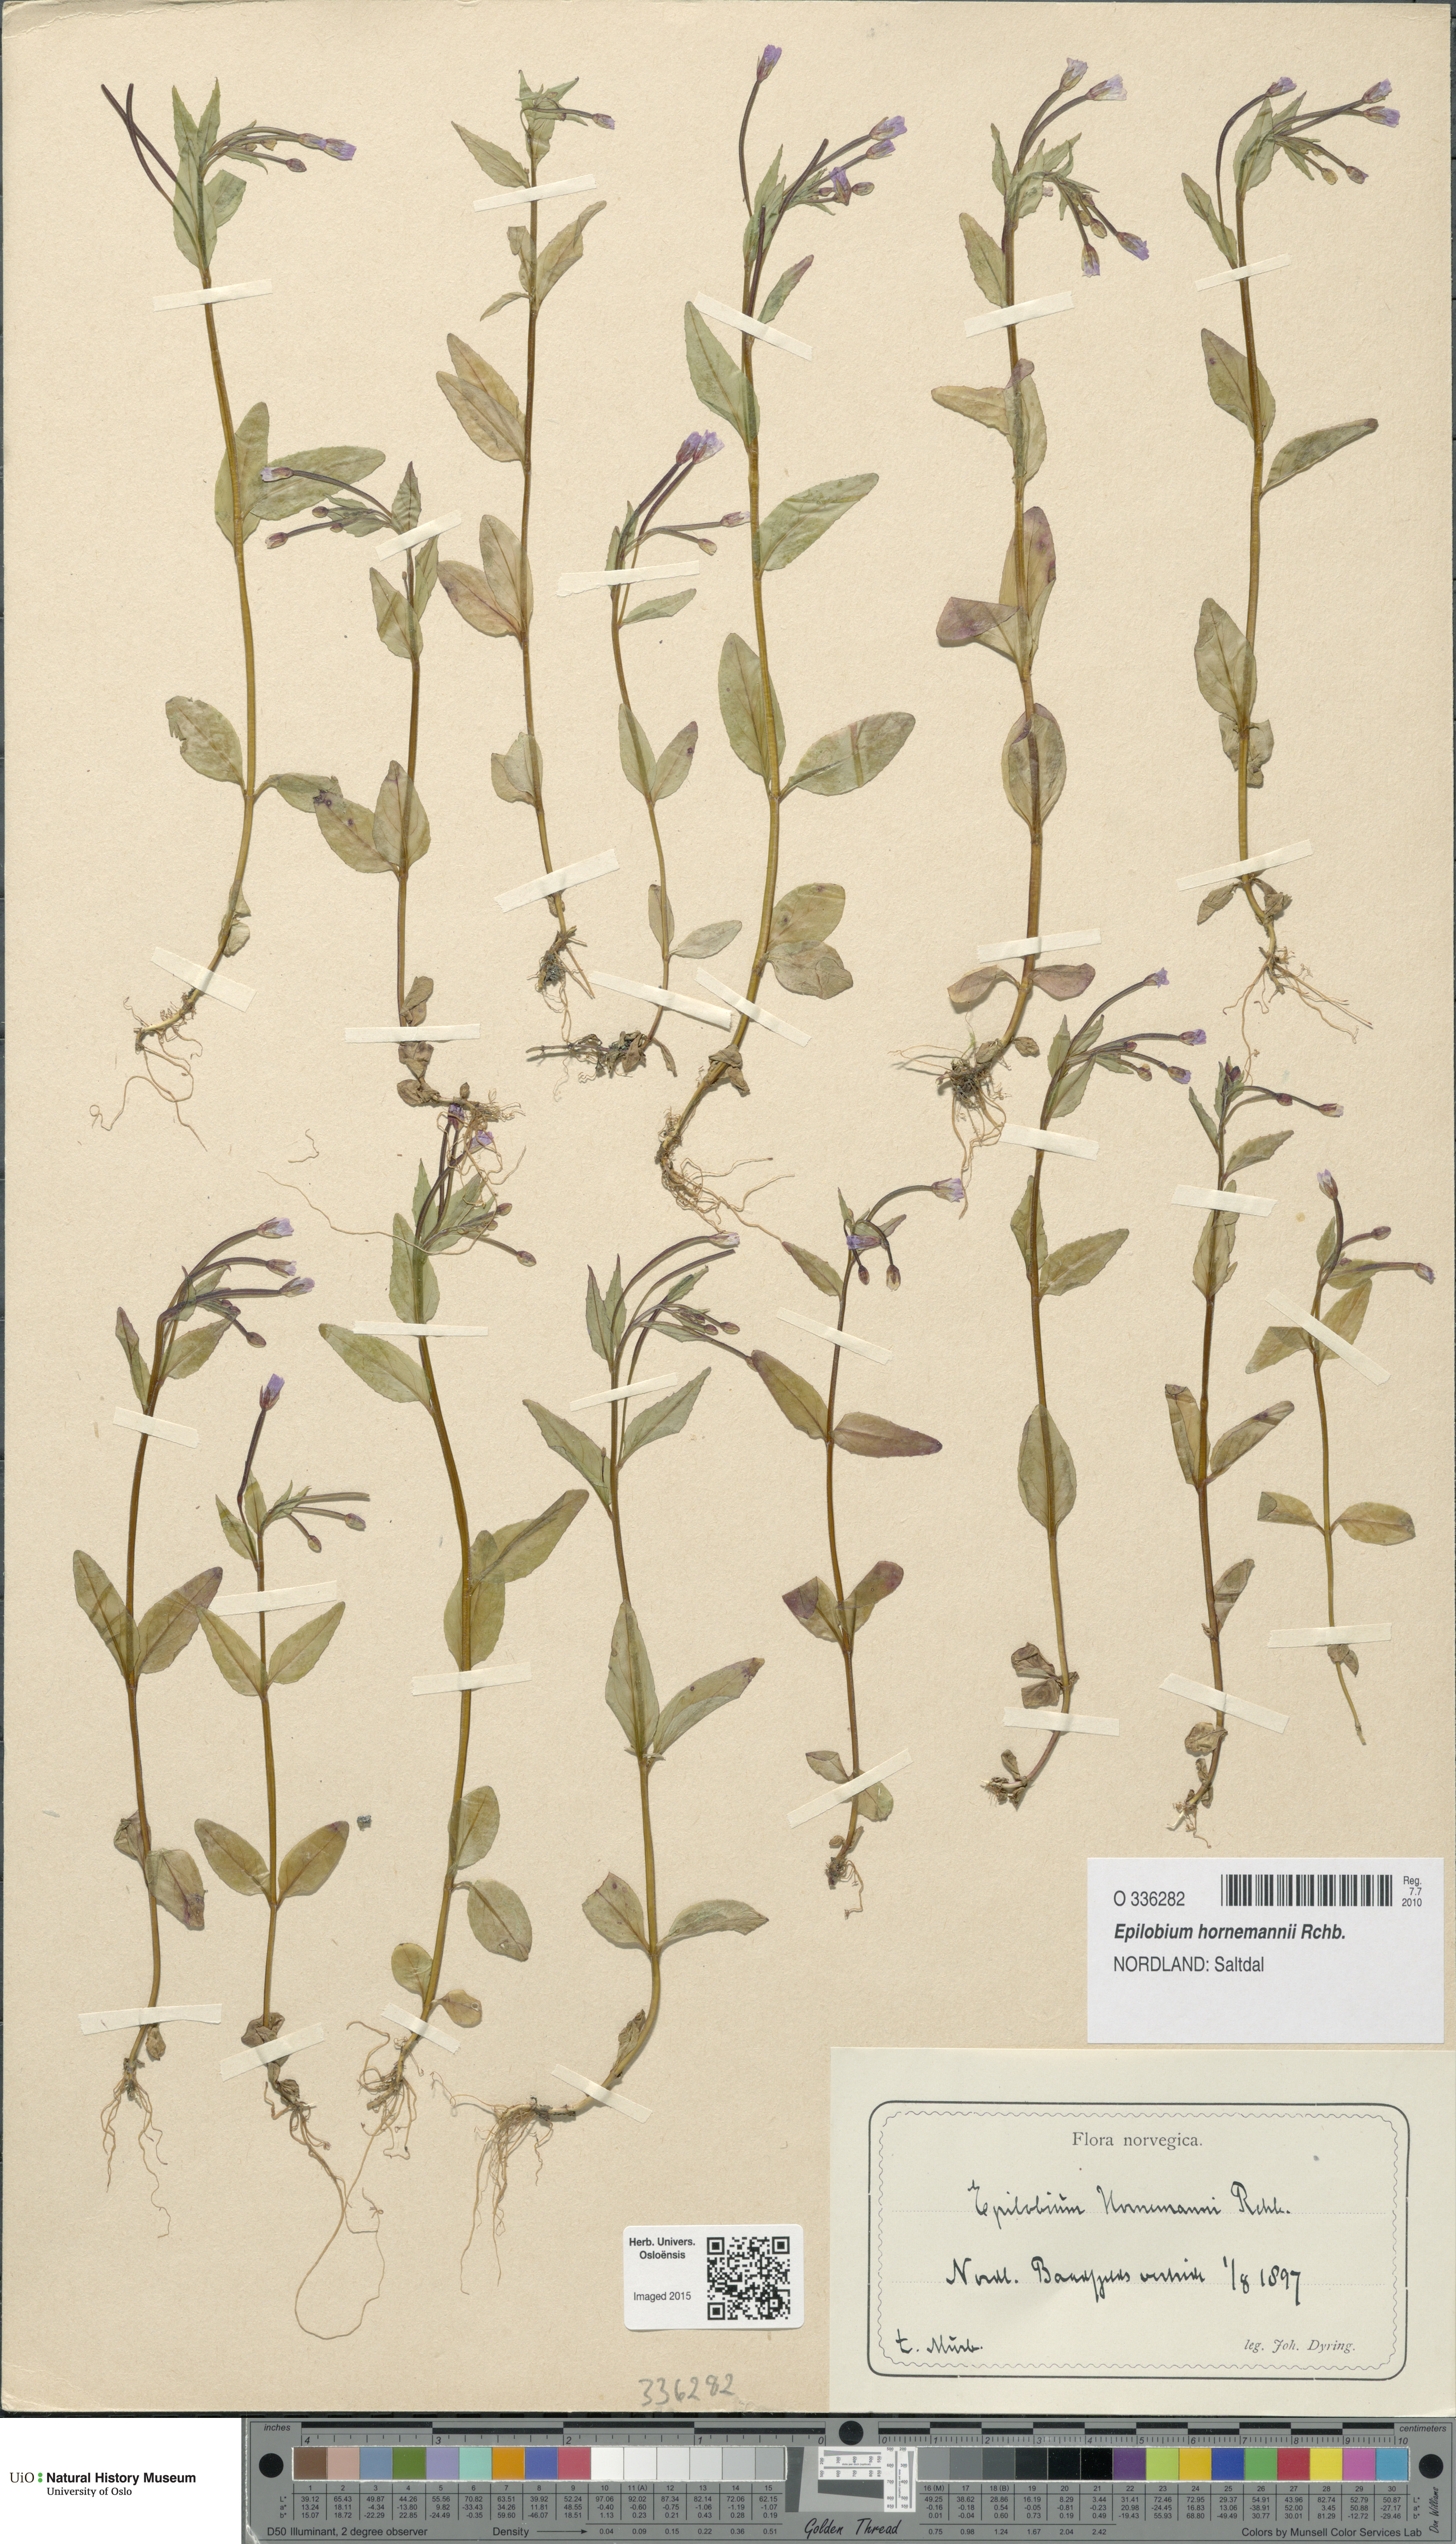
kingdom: Plantae
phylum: Tracheophyta
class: Magnoliopsida
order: Myrtales
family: Onagraceae
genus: Epilobium
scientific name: Epilobium hornemannii
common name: Hornemann's willowherb
